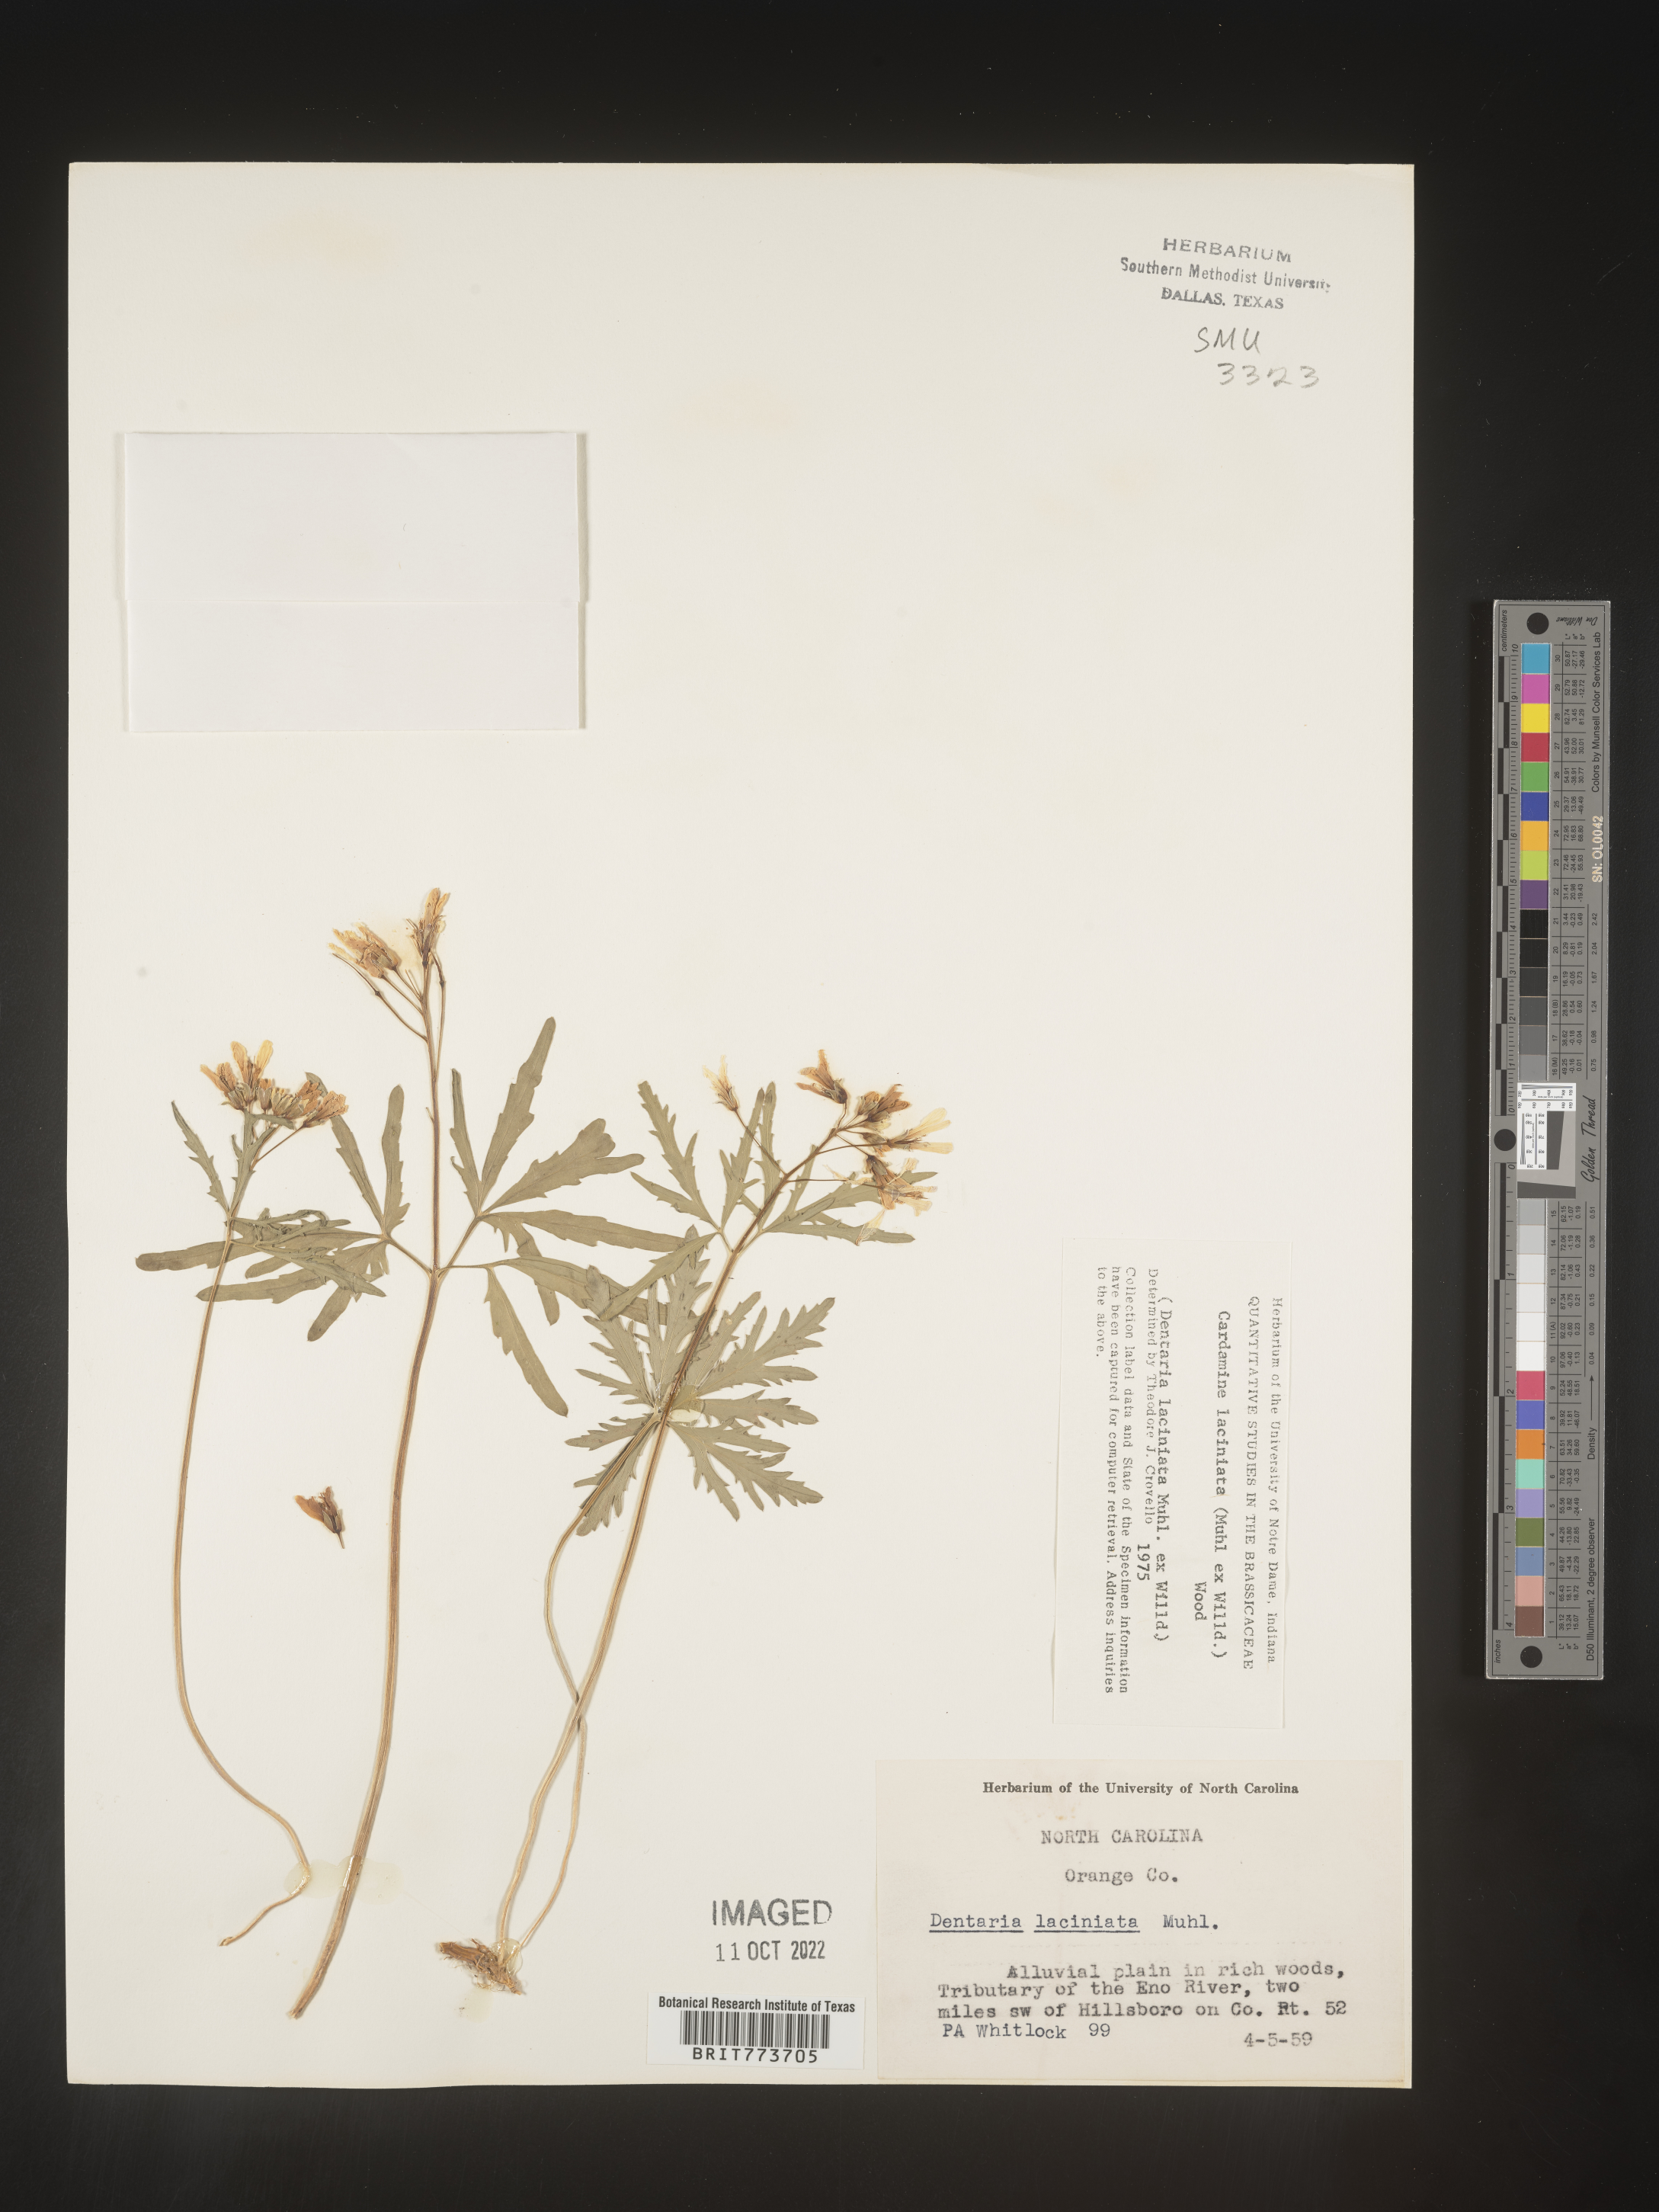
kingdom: Plantae
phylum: Tracheophyta
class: Magnoliopsida
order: Brassicales
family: Brassicaceae
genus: Rorippa
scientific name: Rorippa laciniata
